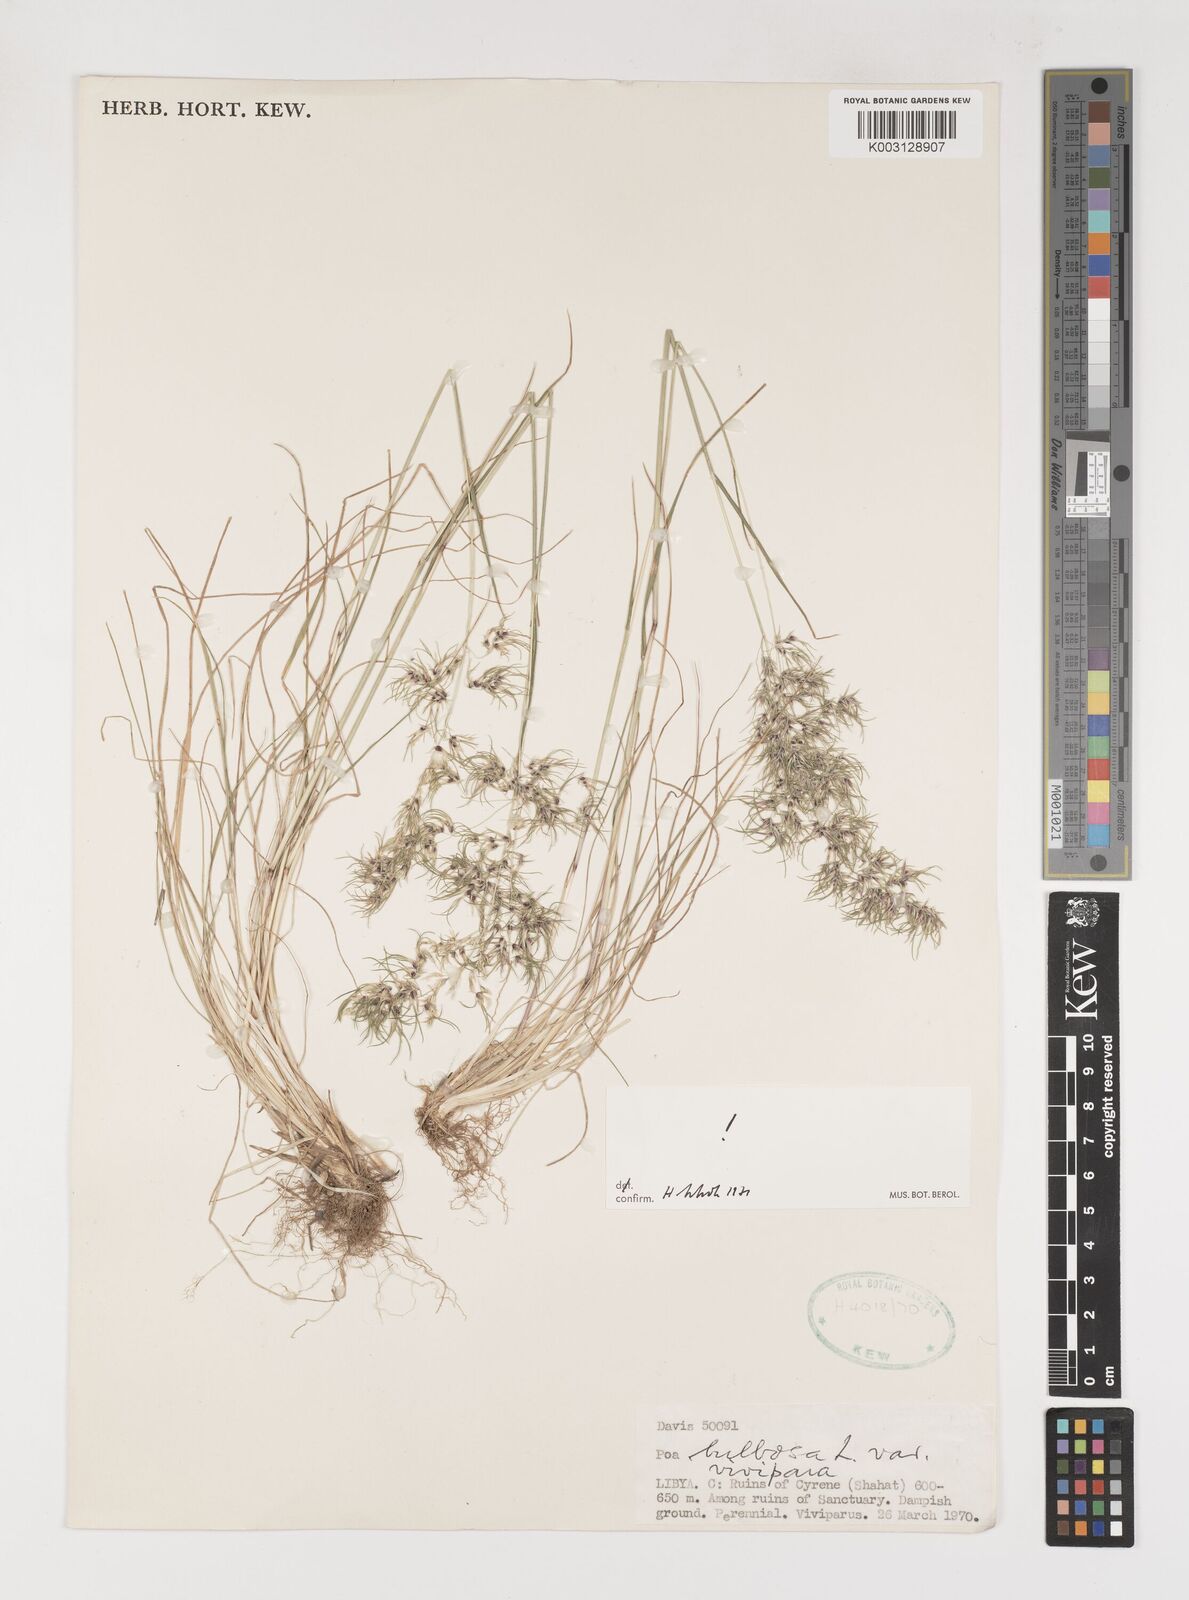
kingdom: Plantae
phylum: Tracheophyta
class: Liliopsida
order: Poales
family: Poaceae
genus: Poa
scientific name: Poa bulbosa
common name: Bulbous bluegrass
